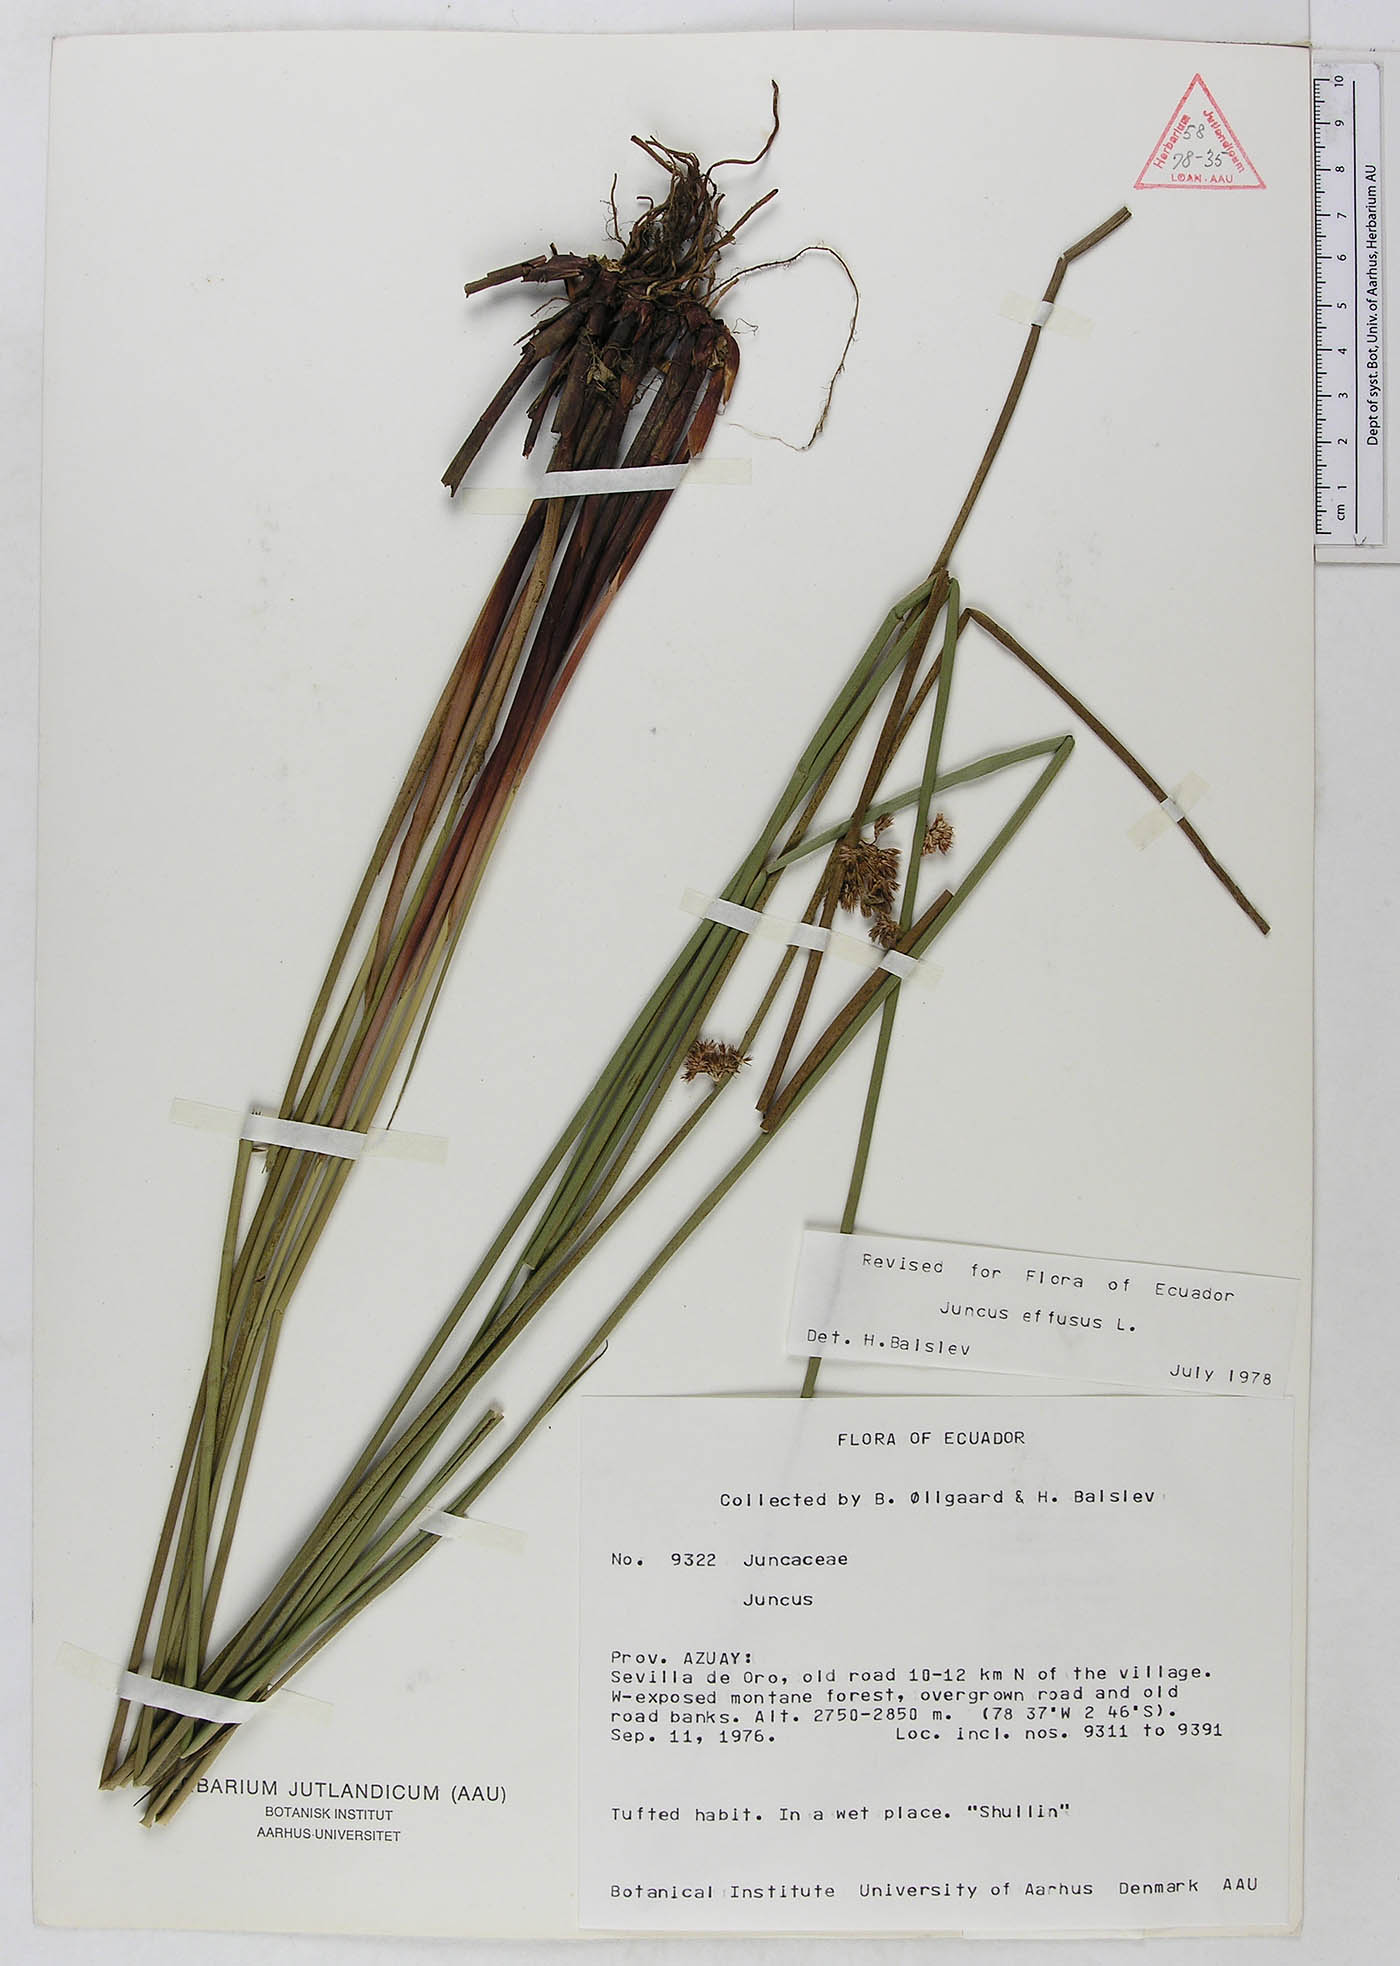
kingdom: Plantae
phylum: Tracheophyta
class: Liliopsida
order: Poales
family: Juncaceae
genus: Juncus
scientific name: Juncus effusus
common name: Soft rush
